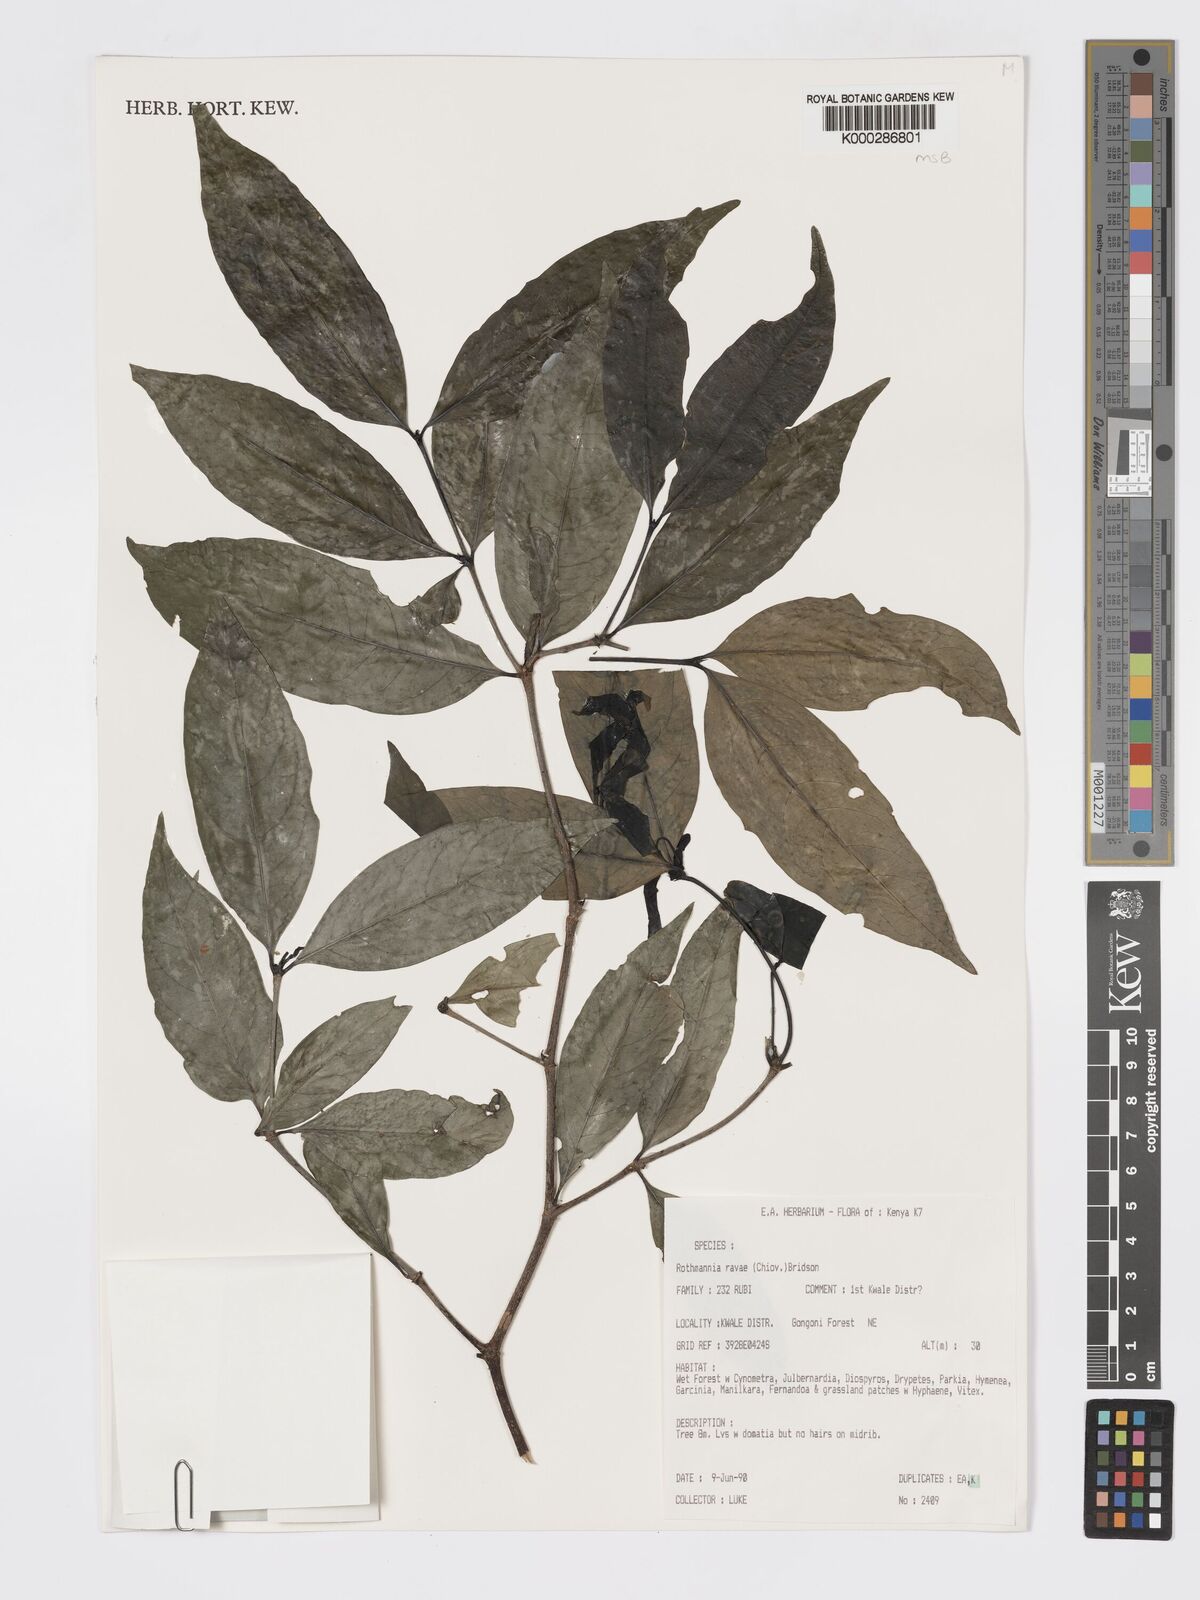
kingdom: Plantae
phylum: Tracheophyta
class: Magnoliopsida
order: Gentianales
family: Rubiaceae
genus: Rothmannia
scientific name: Rothmannia ravae
